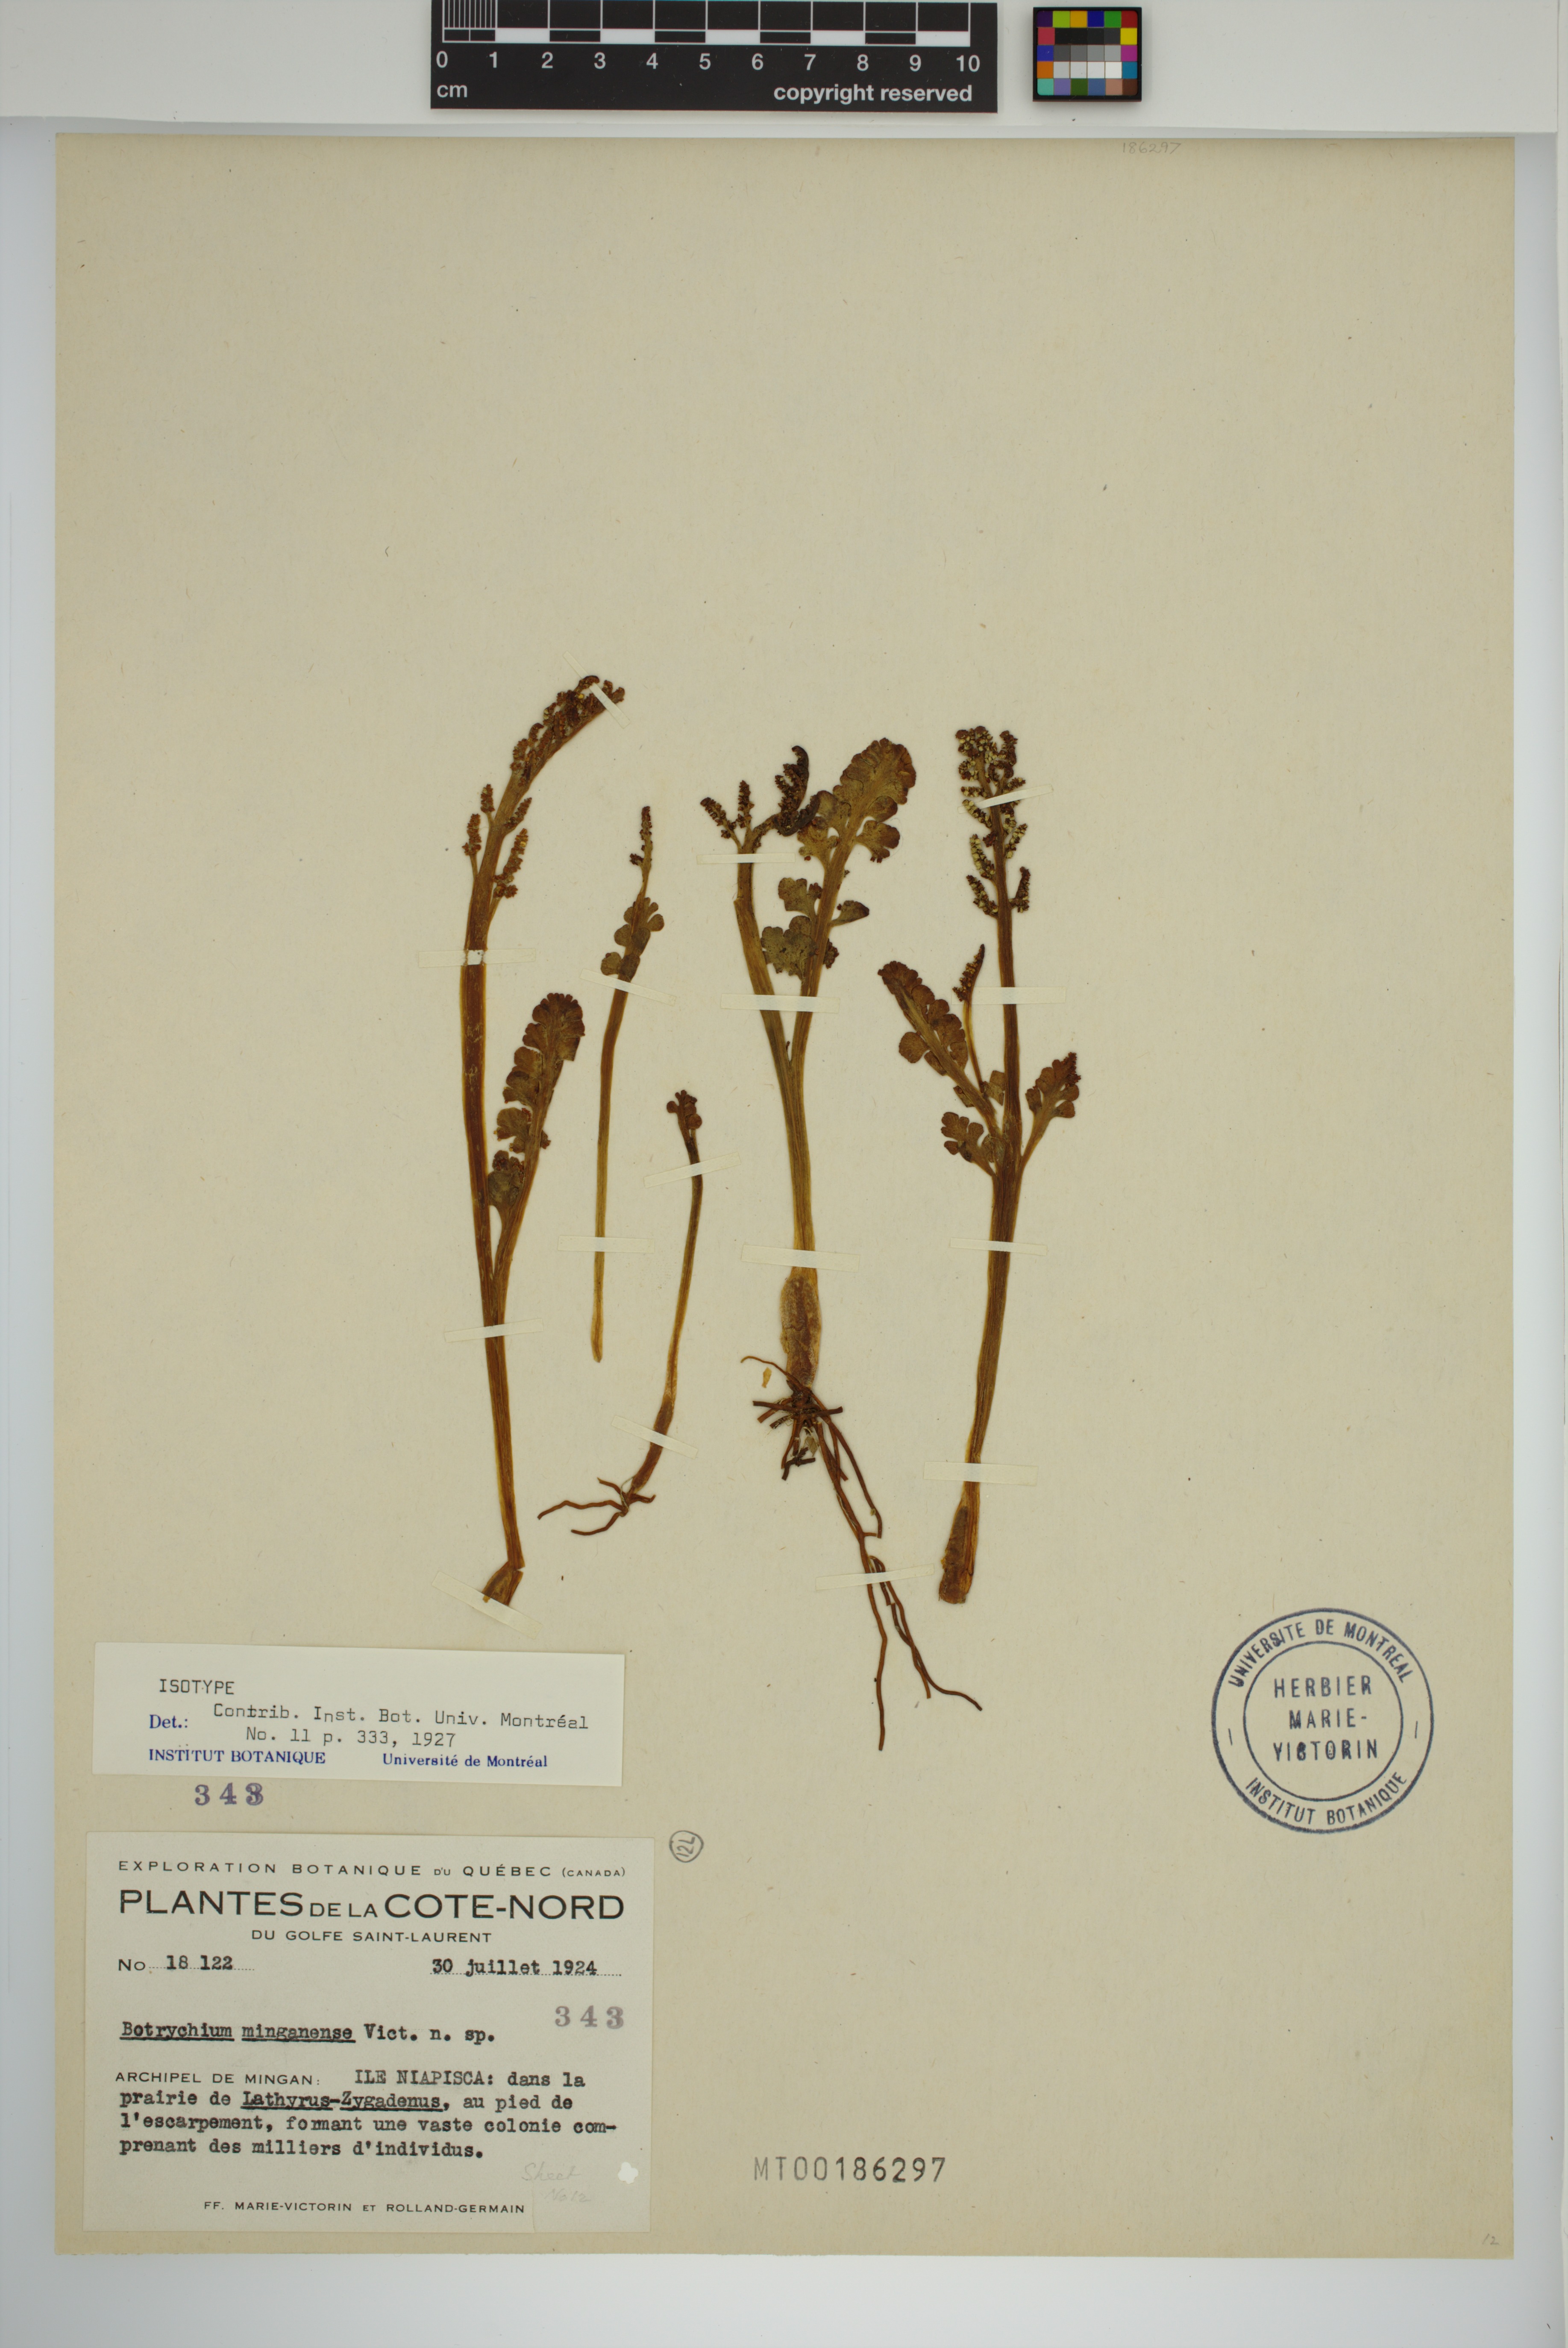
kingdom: Plantae
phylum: Tracheophyta
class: Polypodiopsida
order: Ophioglossales
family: Ophioglossaceae
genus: Botrychium
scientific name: Botrychium minganense
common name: Mingan grapefern
